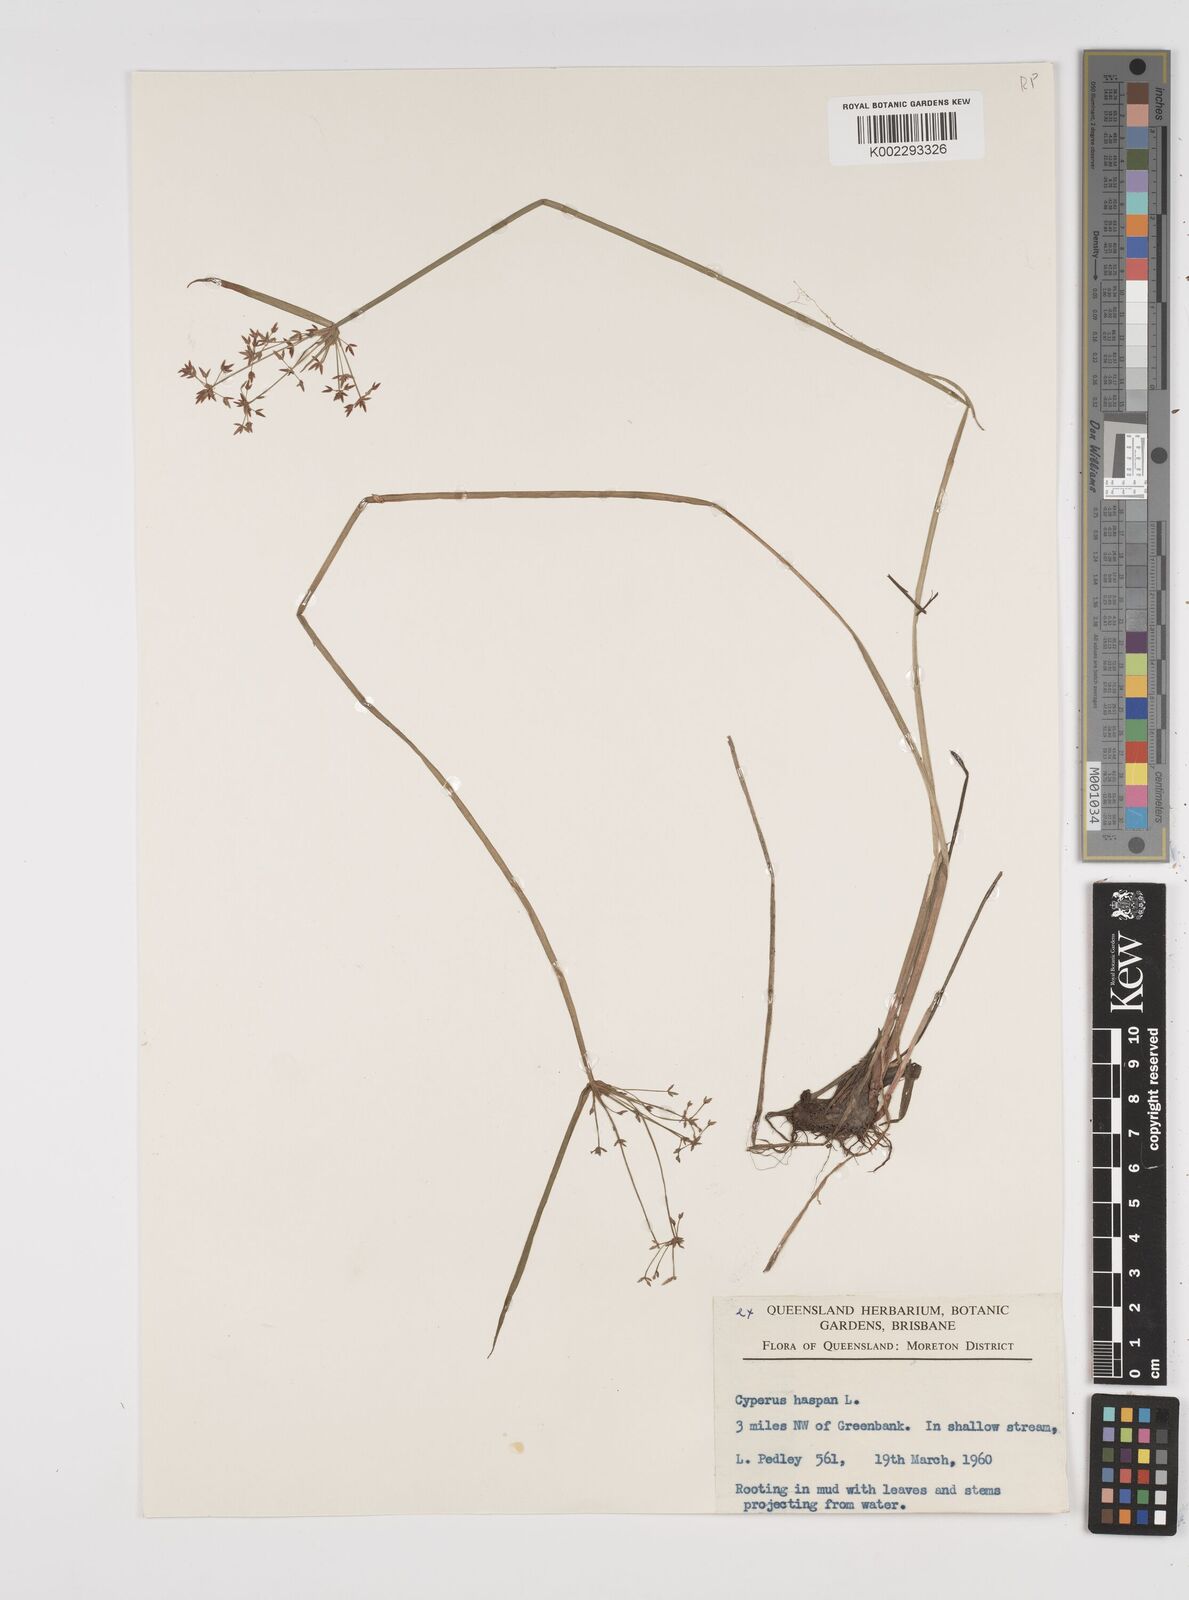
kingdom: Plantae
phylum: Tracheophyta
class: Liliopsida
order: Poales
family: Cyperaceae
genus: Cyperus
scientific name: Cyperus haspan
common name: Haspan flatsedge
